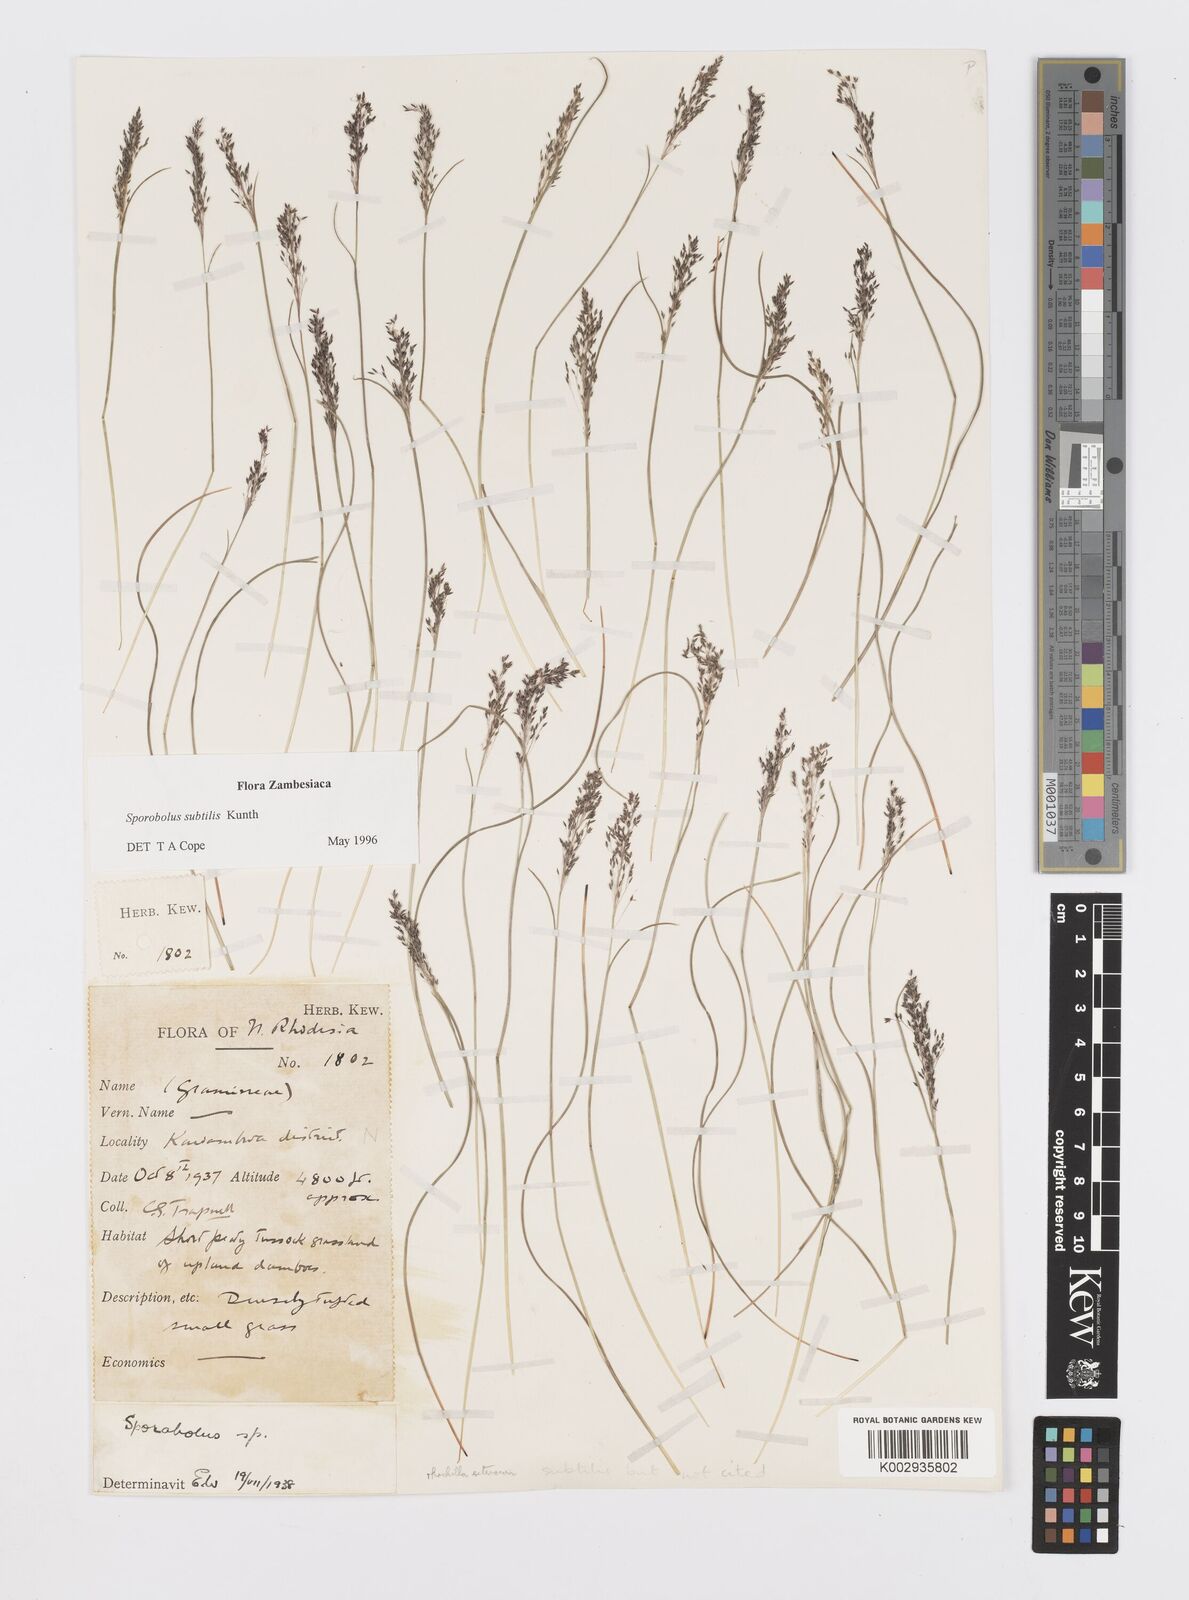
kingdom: Plantae
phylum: Tracheophyta
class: Liliopsida
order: Poales
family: Poaceae
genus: Sporobolus
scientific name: Sporobolus subtilis
